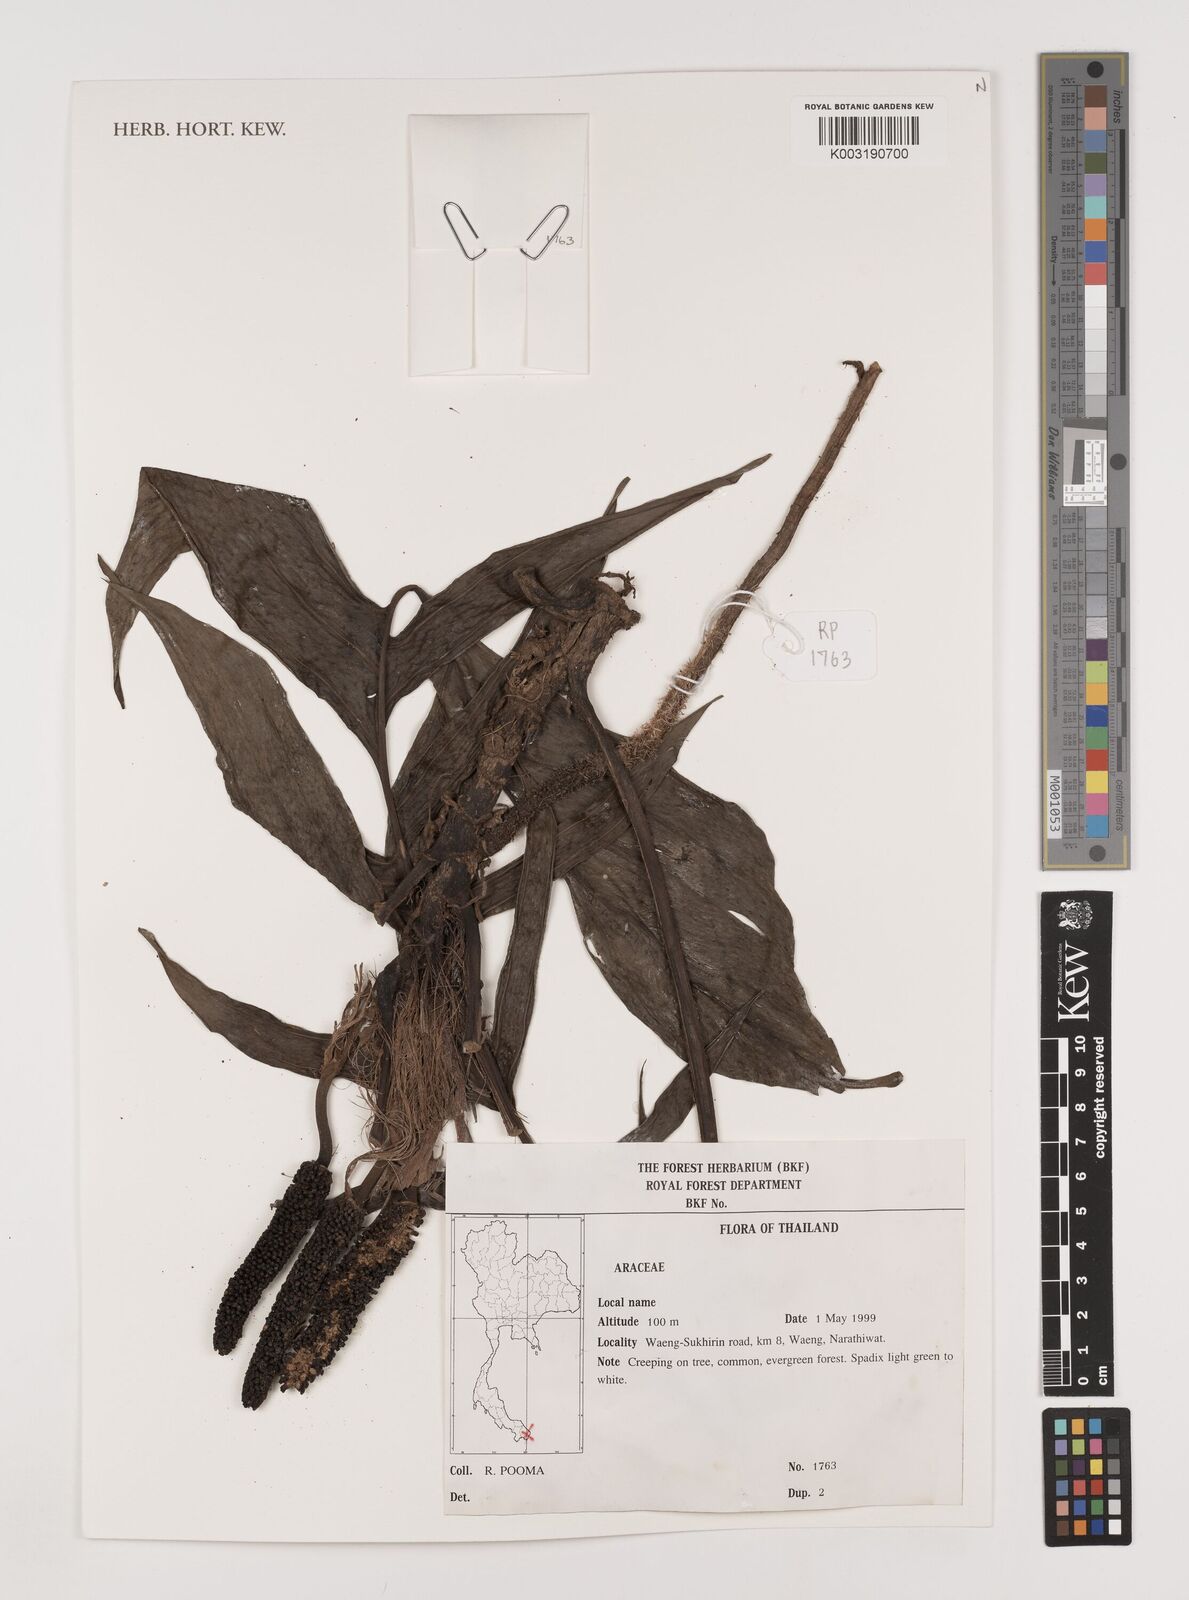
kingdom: Plantae
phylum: Tracheophyta
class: Liliopsida
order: Alismatales
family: Araceae
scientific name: Araceae
